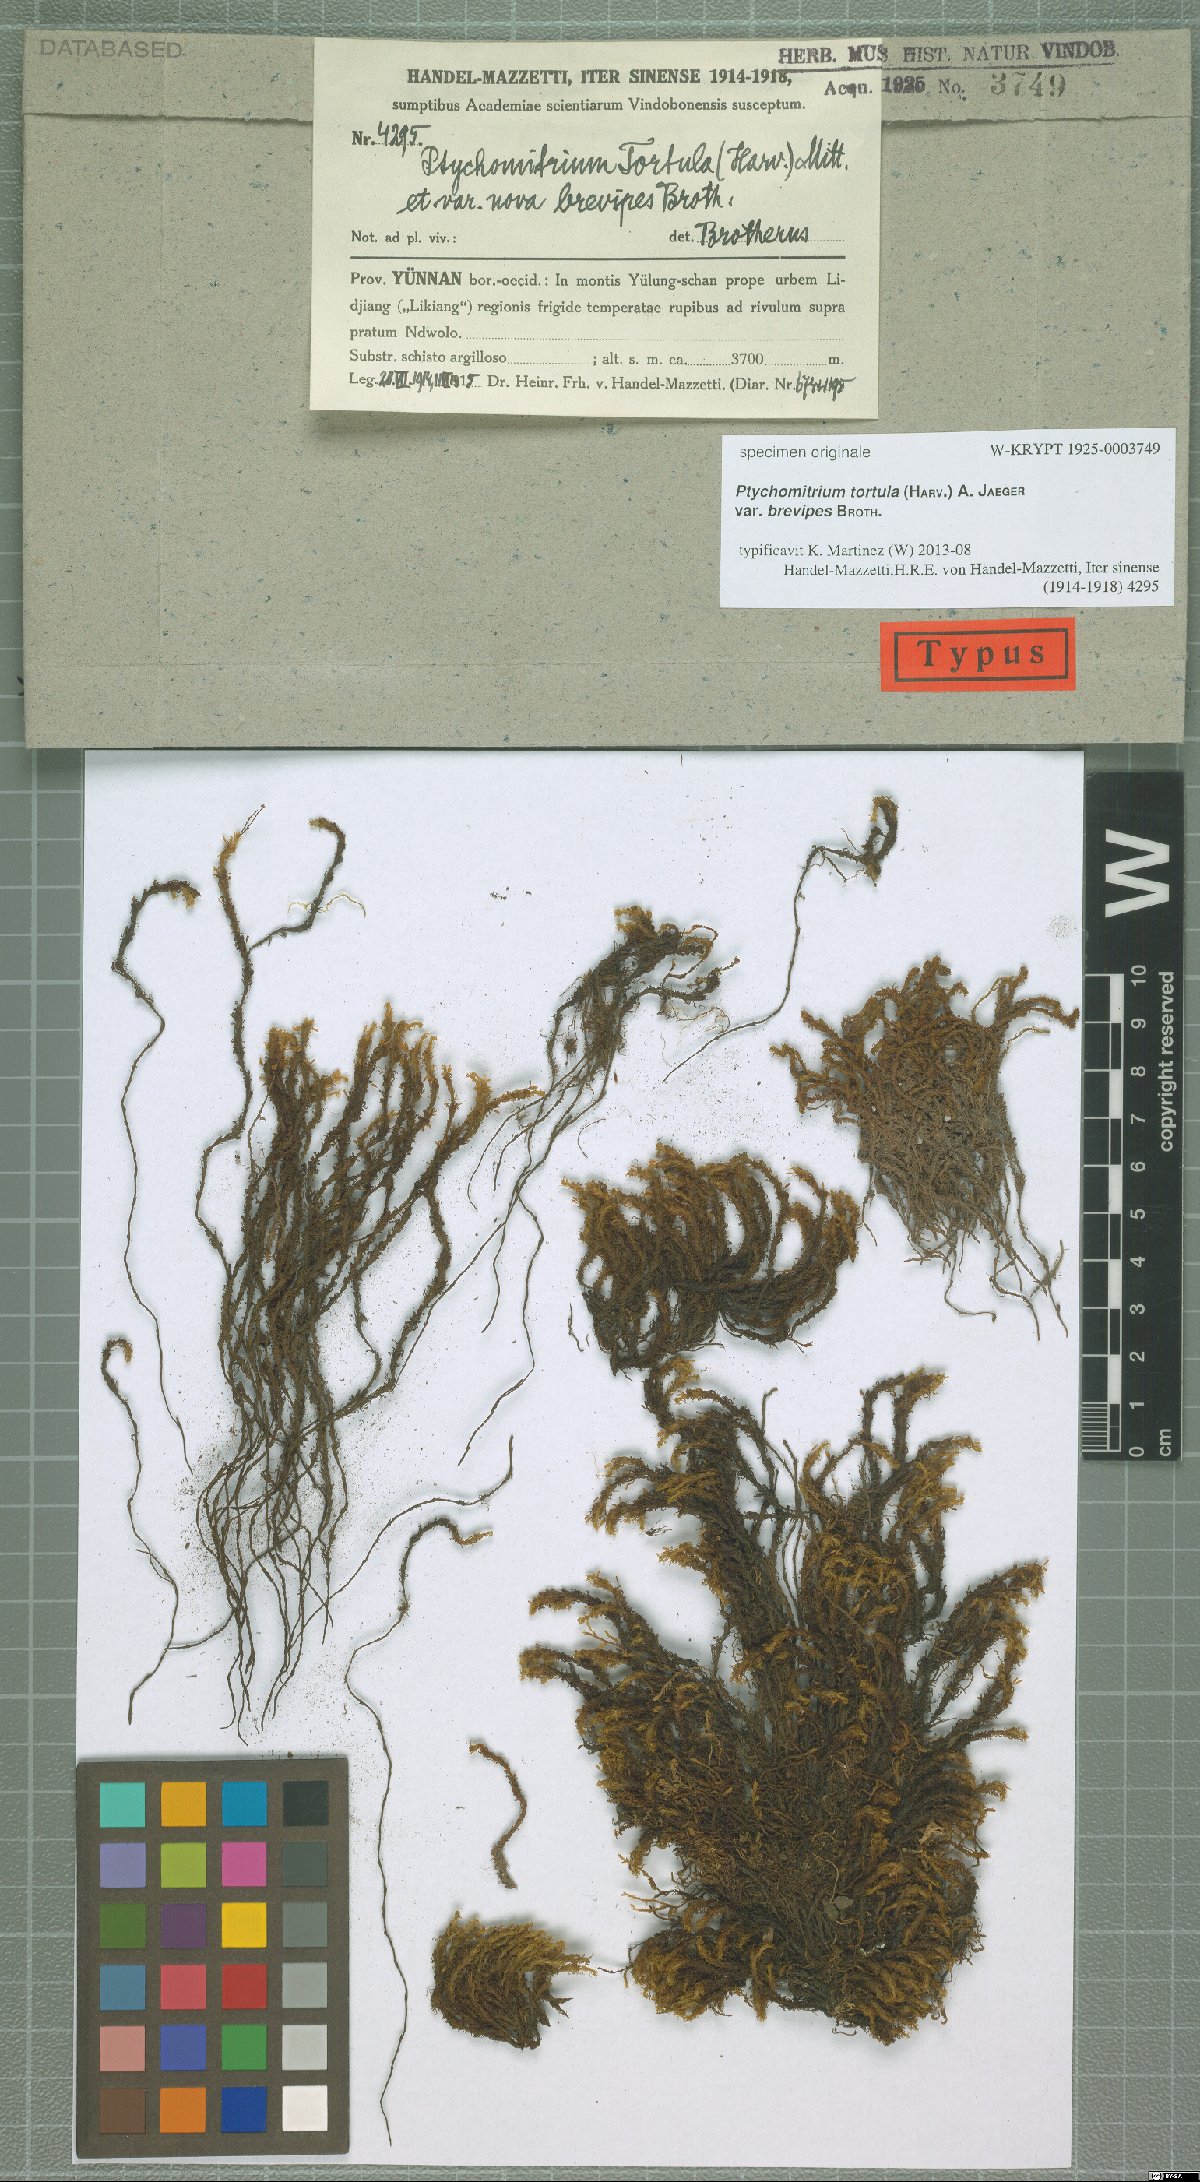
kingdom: Plantae
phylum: Bryophyta
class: Bryopsida
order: Grimmiales
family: Ptychomitriaceae
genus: Ptychomitrium
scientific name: Ptychomitrium tortula
